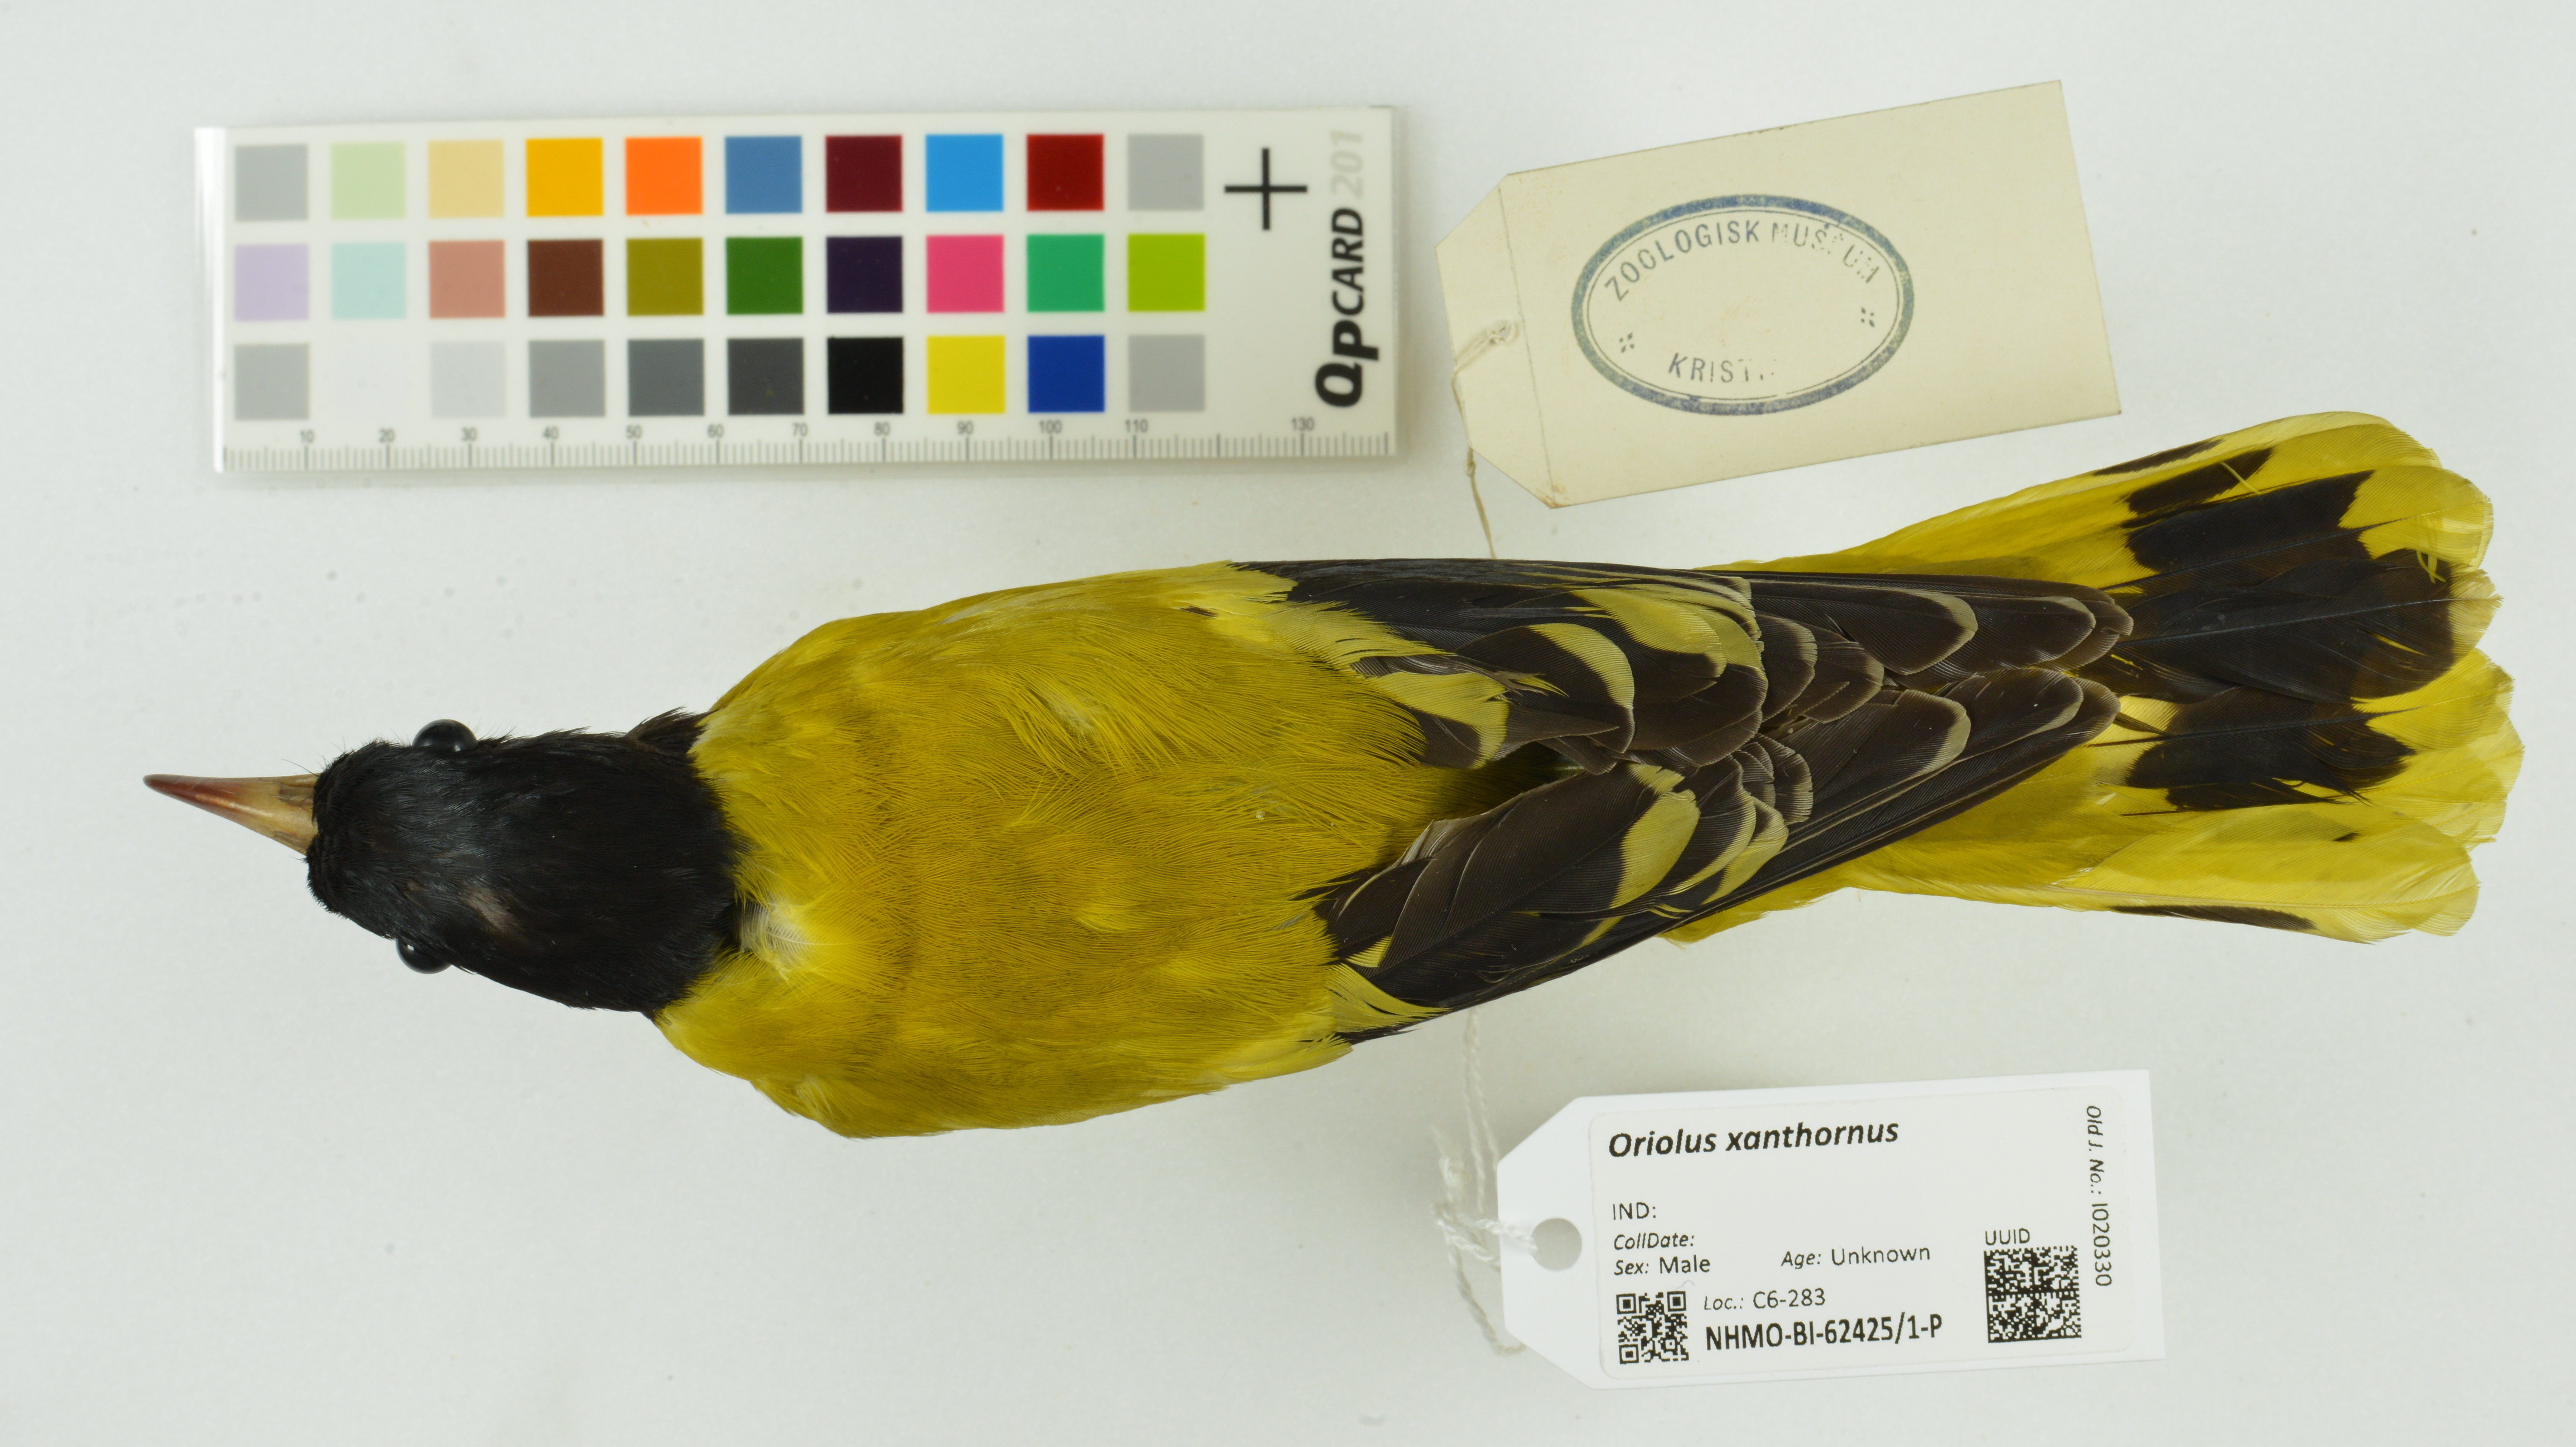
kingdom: Animalia
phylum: Chordata
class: Aves
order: Passeriformes
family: Oriolidae
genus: Oriolus
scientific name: Oriolus xanthornus
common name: Black-hooded oriole
